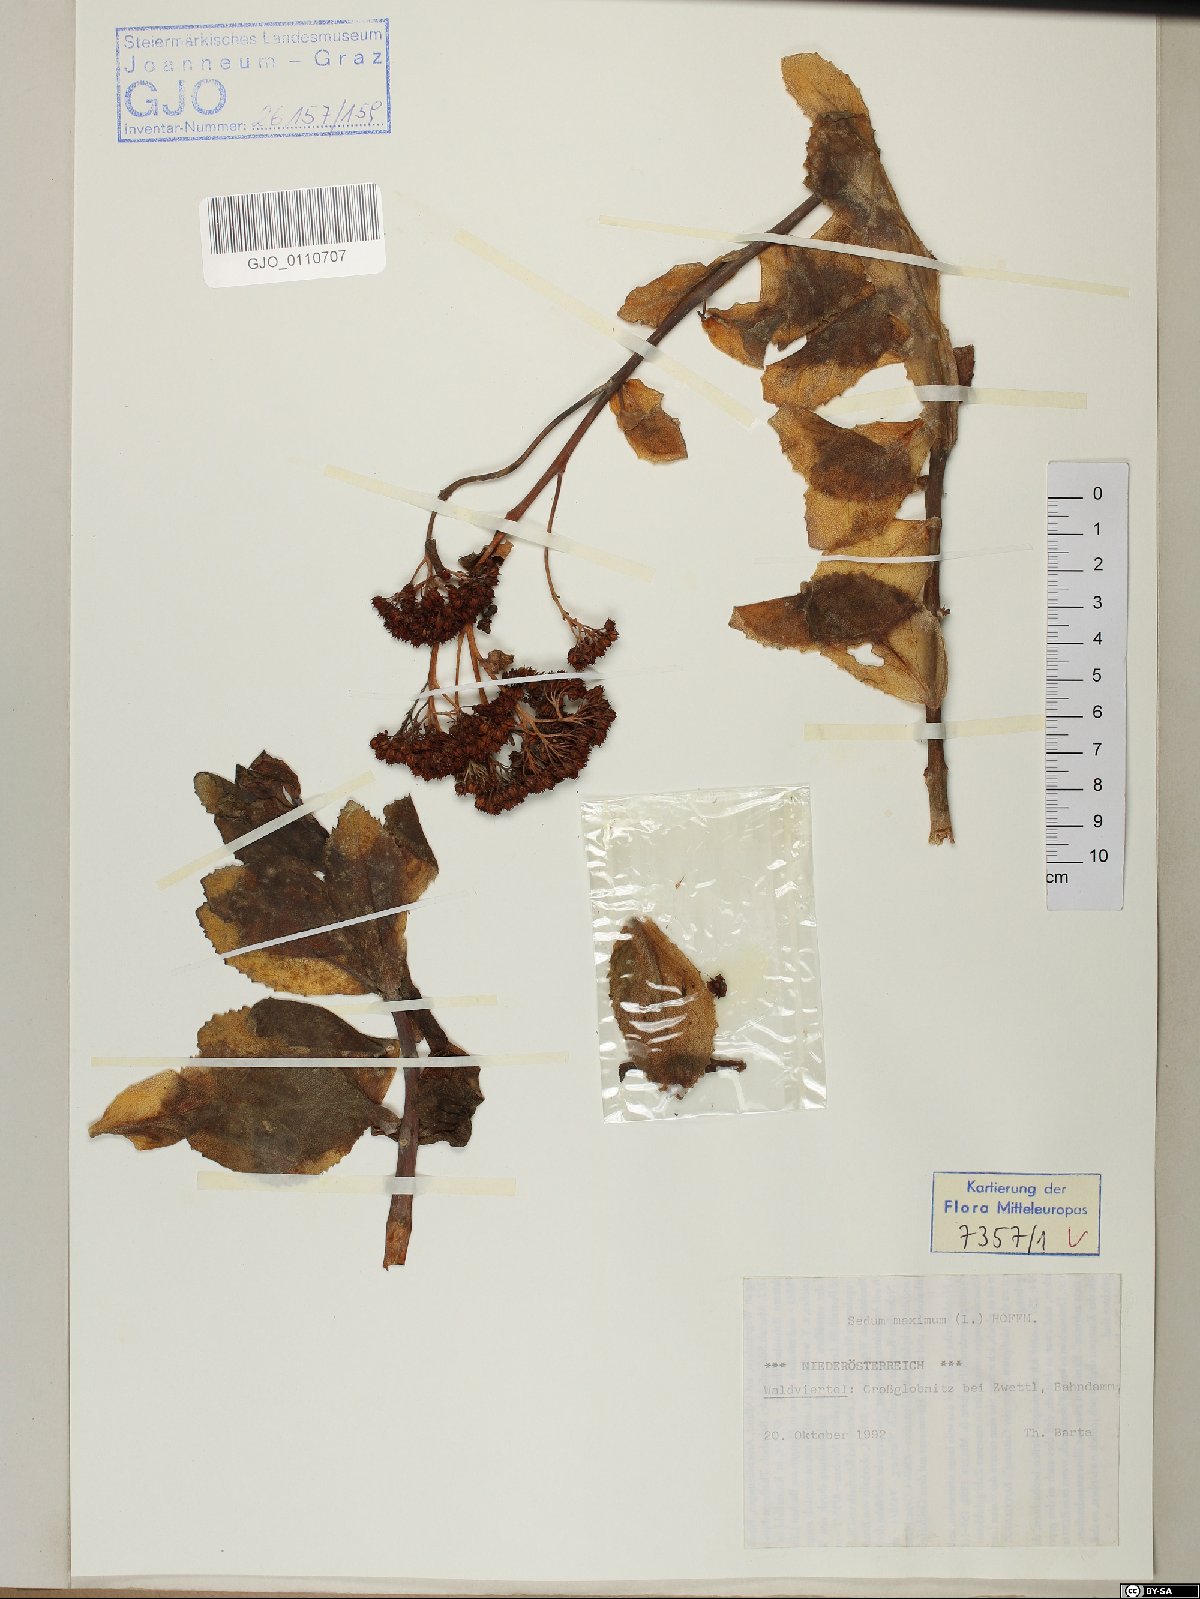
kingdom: Plantae
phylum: Tracheophyta
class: Magnoliopsida
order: Saxifragales
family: Crassulaceae
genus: Hylotelephium
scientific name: Hylotelephium maximum
